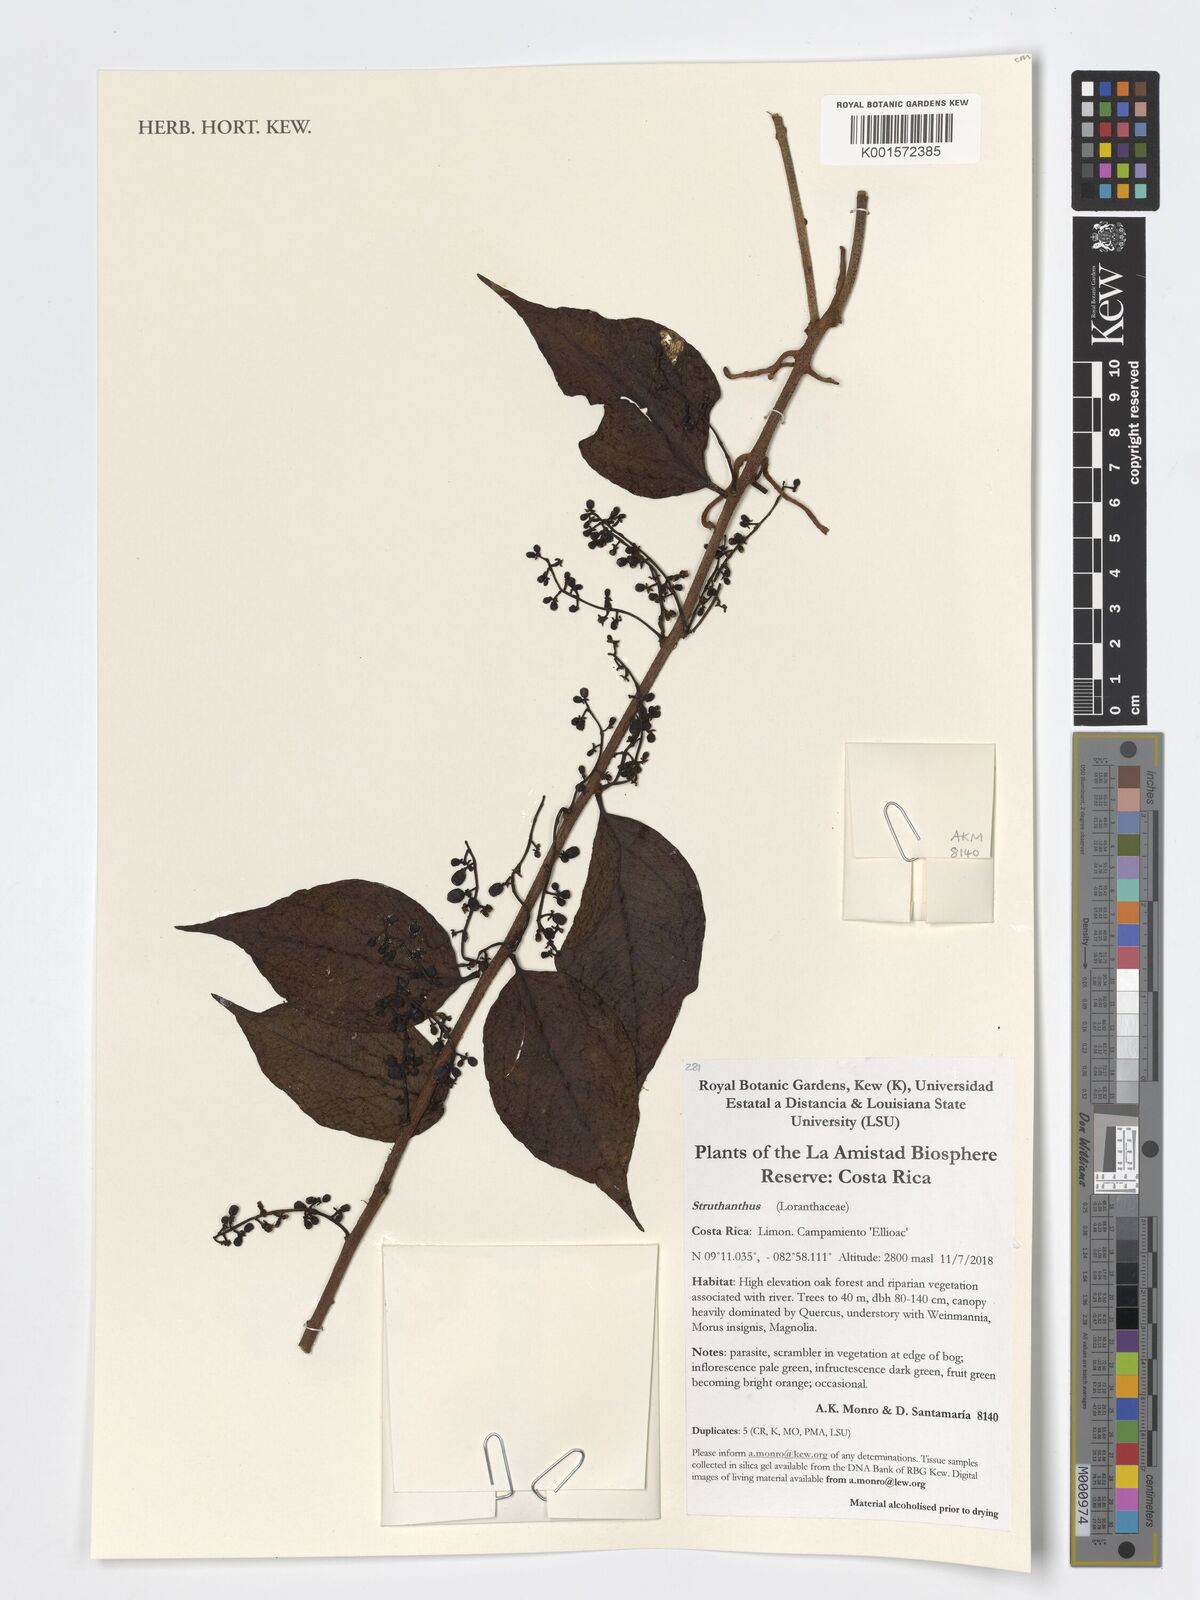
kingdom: Plantae
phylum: Tracheophyta
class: Magnoliopsida
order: Santalales
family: Loranthaceae
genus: Struthanthus
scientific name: Struthanthus
